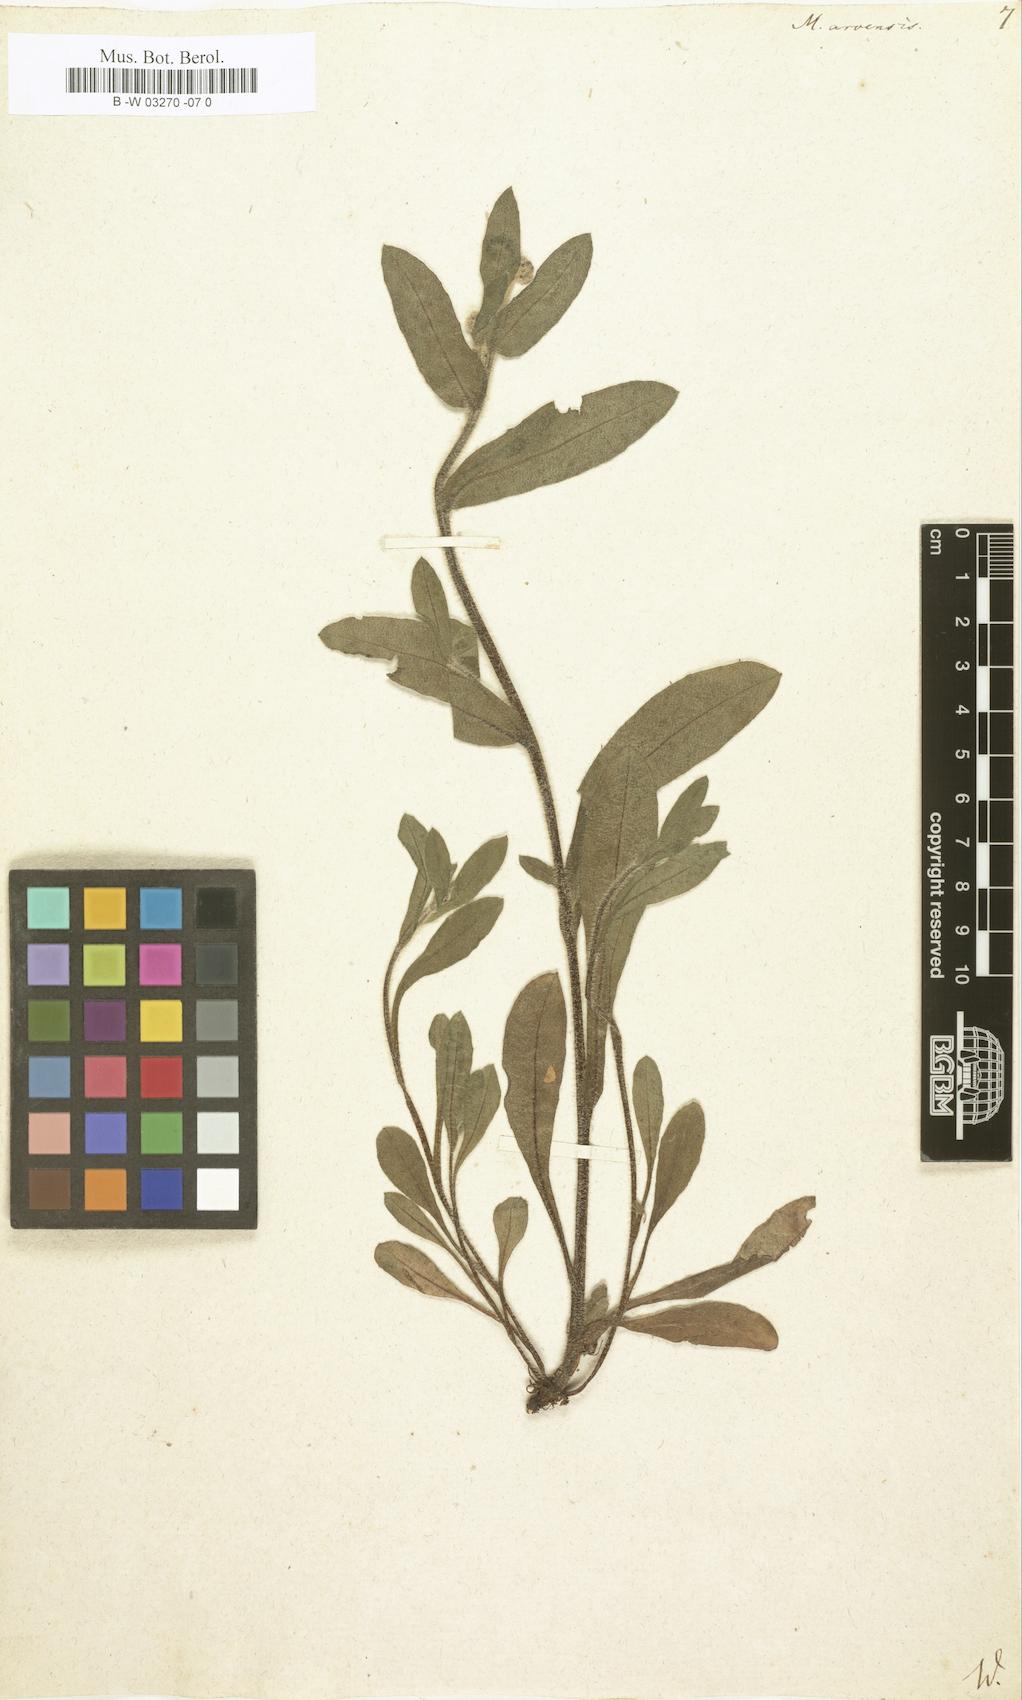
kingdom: Plantae
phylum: Tracheophyta
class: Magnoliopsida
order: Boraginales
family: Boraginaceae
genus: Myosotis
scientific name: Myosotis arvensis
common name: Field forget-me-not
